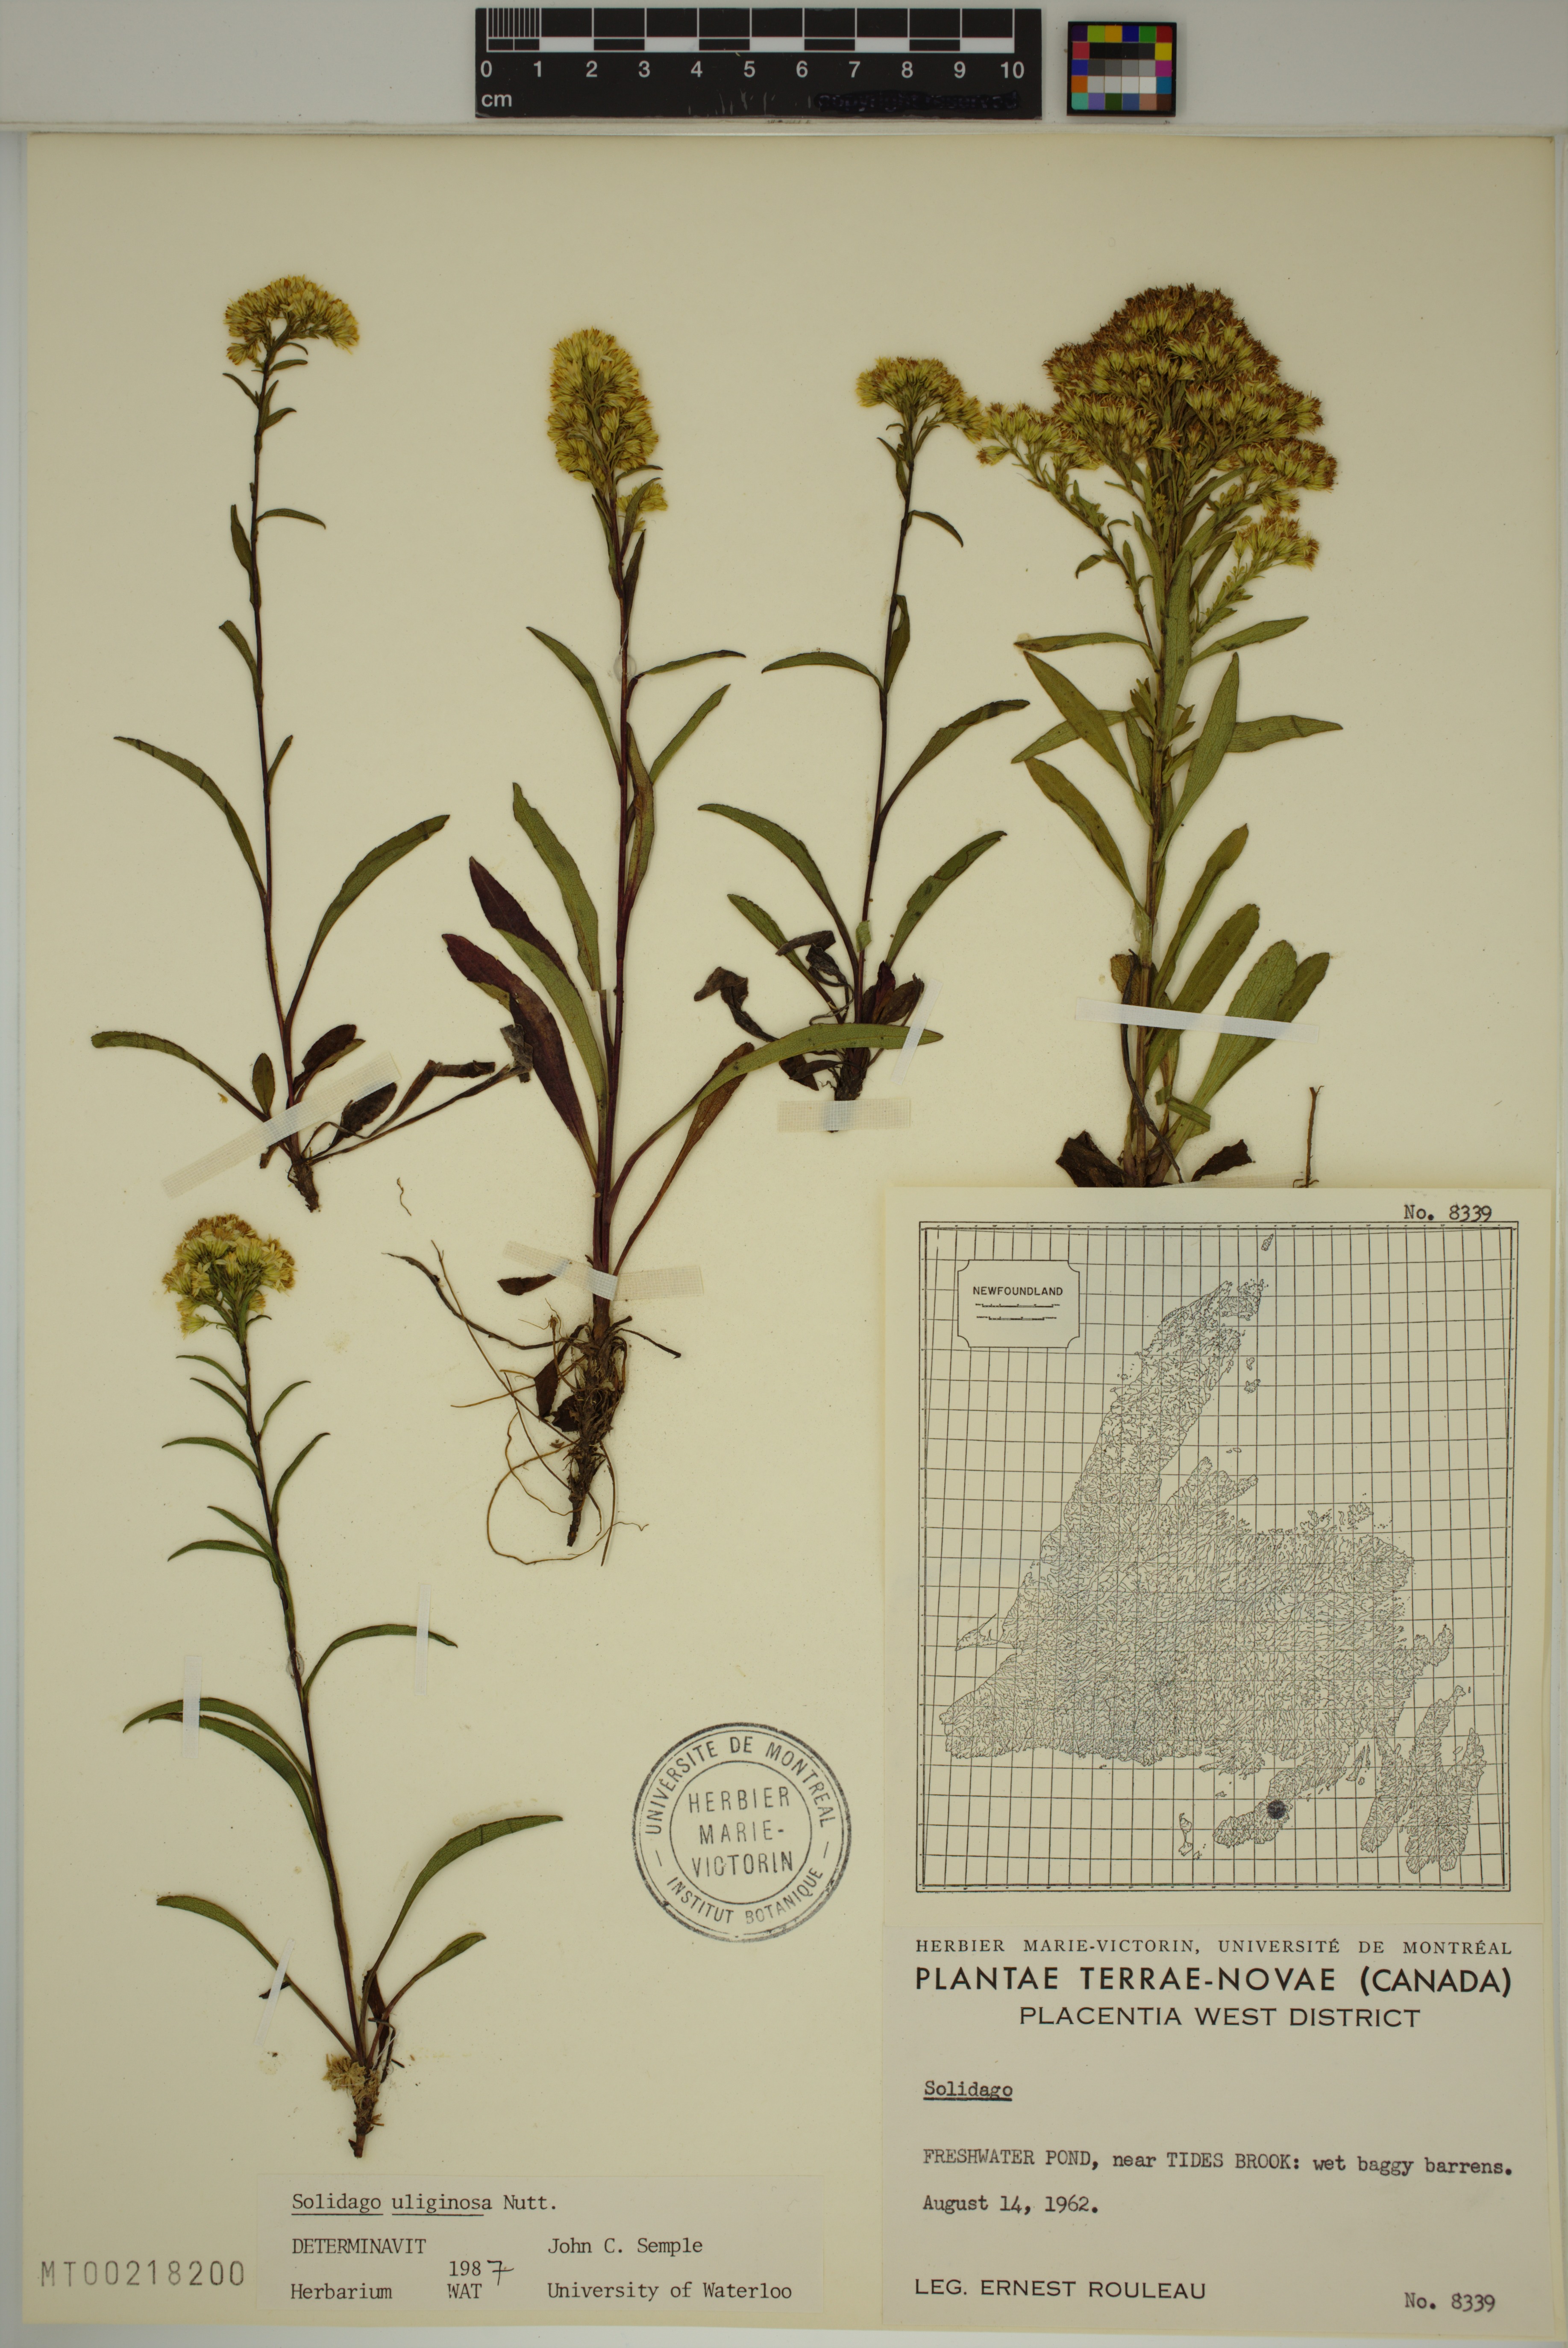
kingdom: Plantae
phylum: Tracheophyta
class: Magnoliopsida
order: Asterales
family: Asteraceae
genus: Solidago
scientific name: Solidago uliginosa
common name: Bog goldenrod
